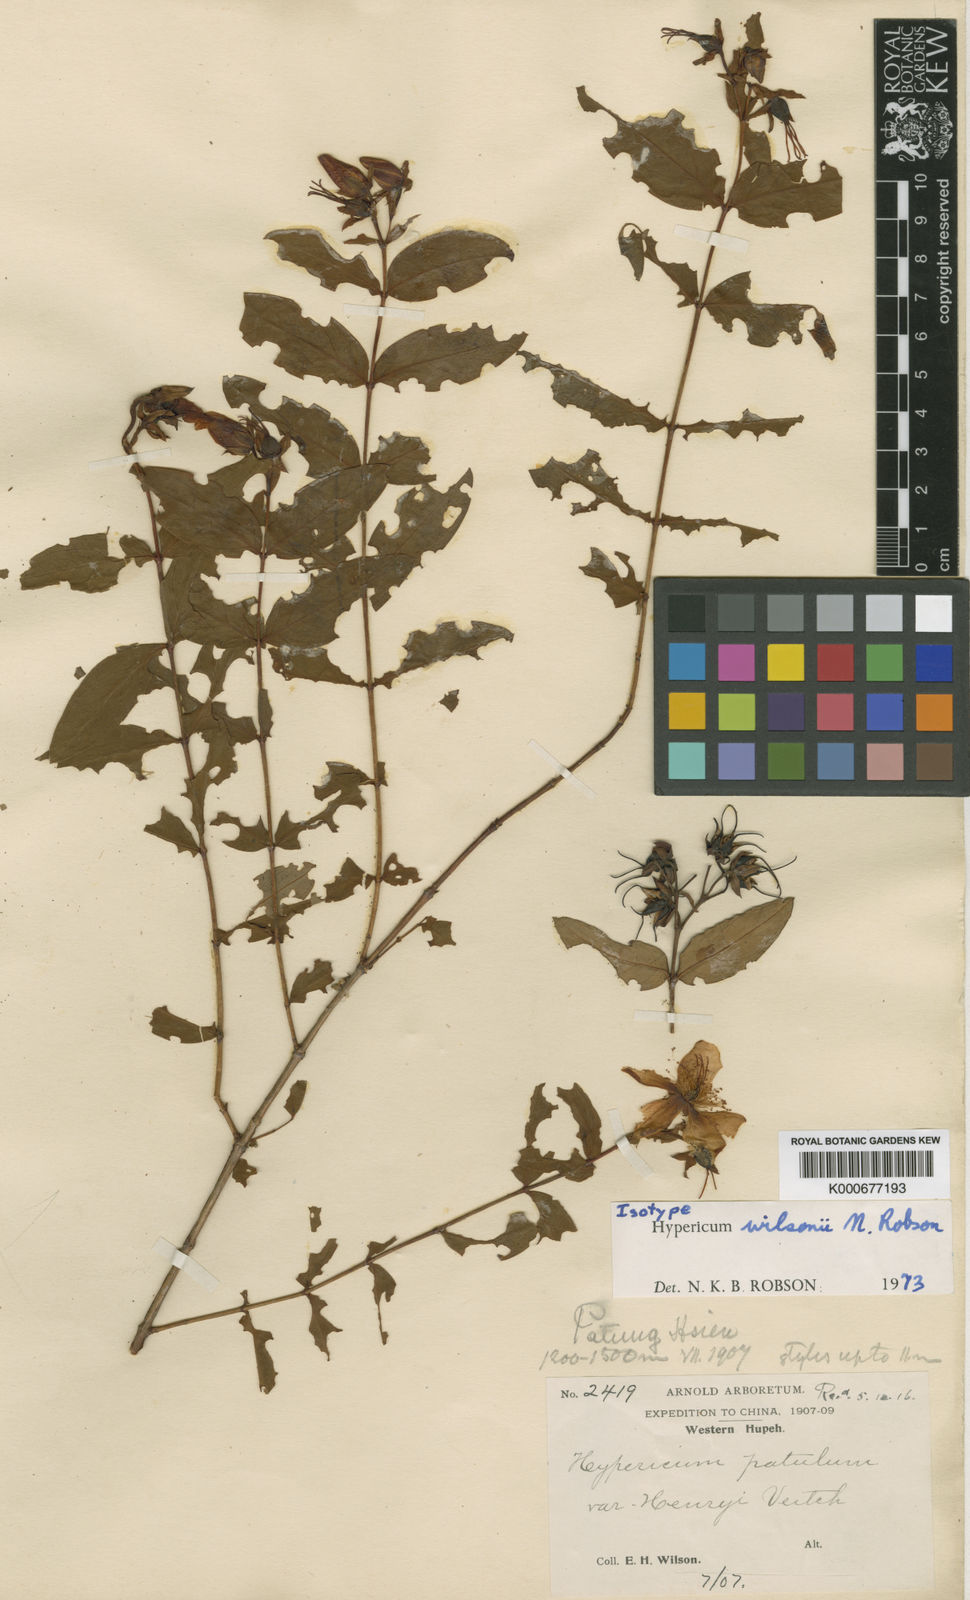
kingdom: Plantae
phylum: Tracheophyta
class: Magnoliopsida
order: Malpighiales
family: Hypericaceae
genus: Hypericum
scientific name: Hypericum wilsonii
